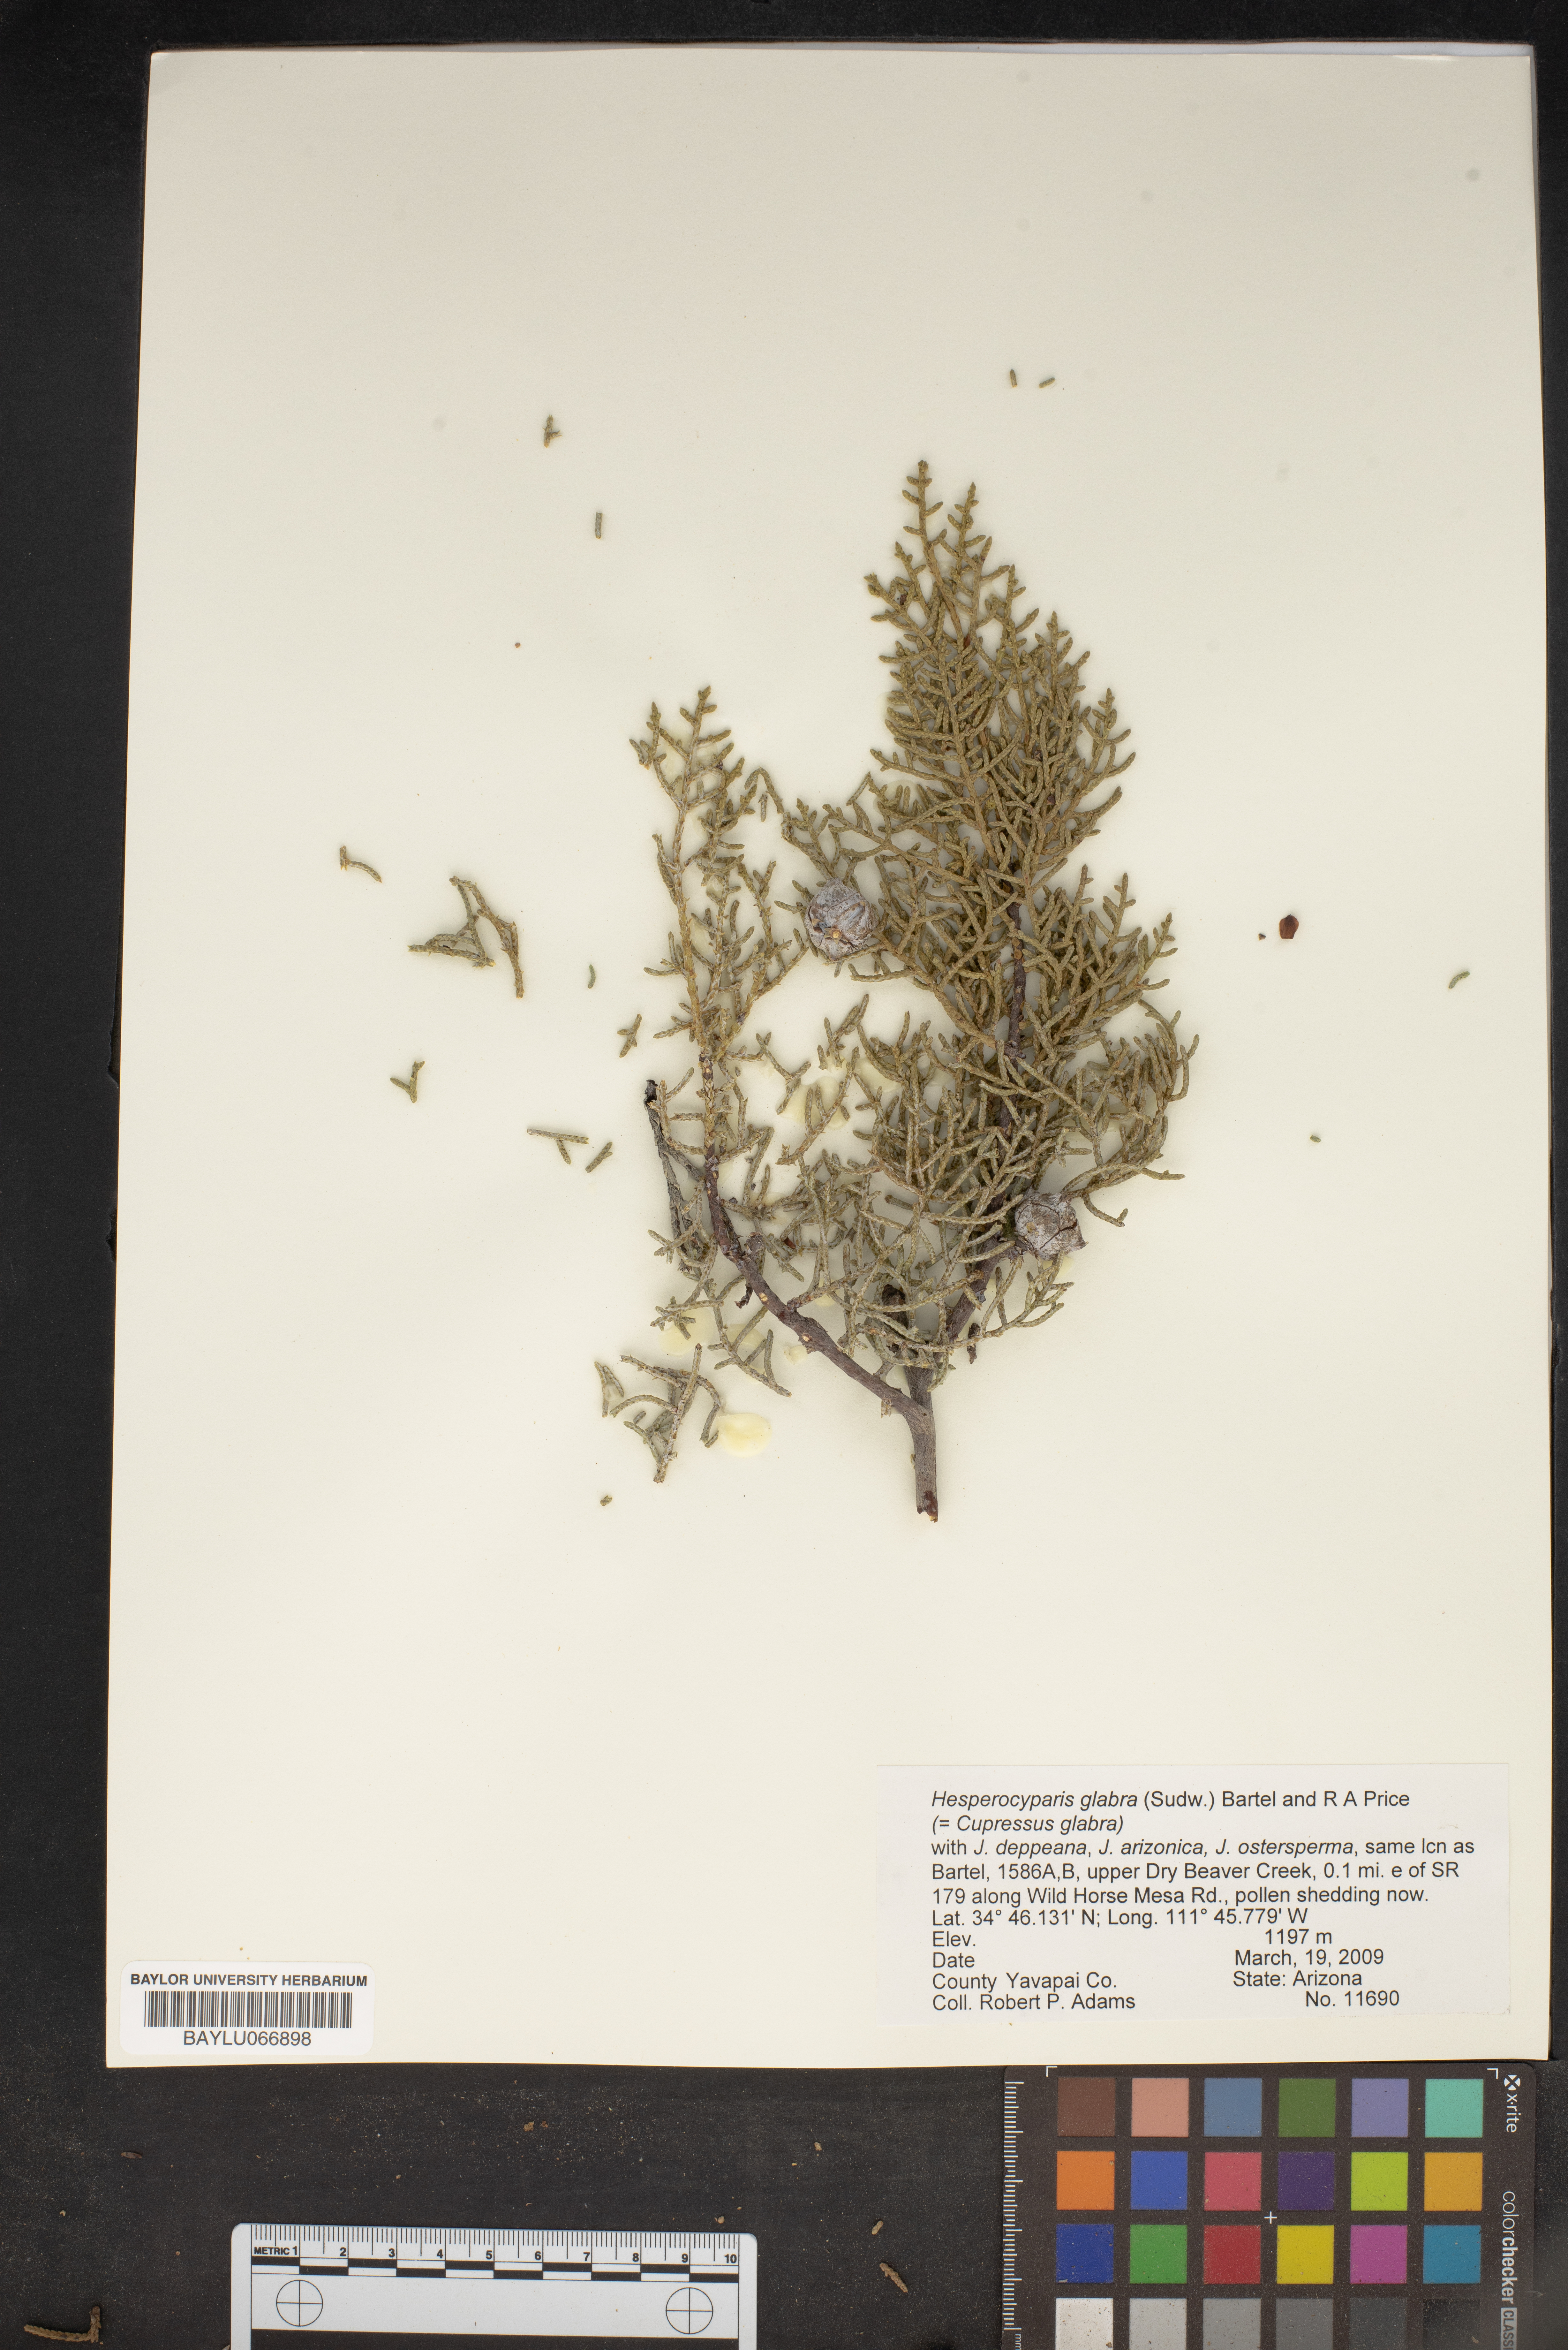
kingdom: Plantae
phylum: Tracheophyta
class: Pinopsida
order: Pinales
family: Cupressaceae
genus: Cupressus
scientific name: Cupressus arizonica
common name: Arizona cypress
